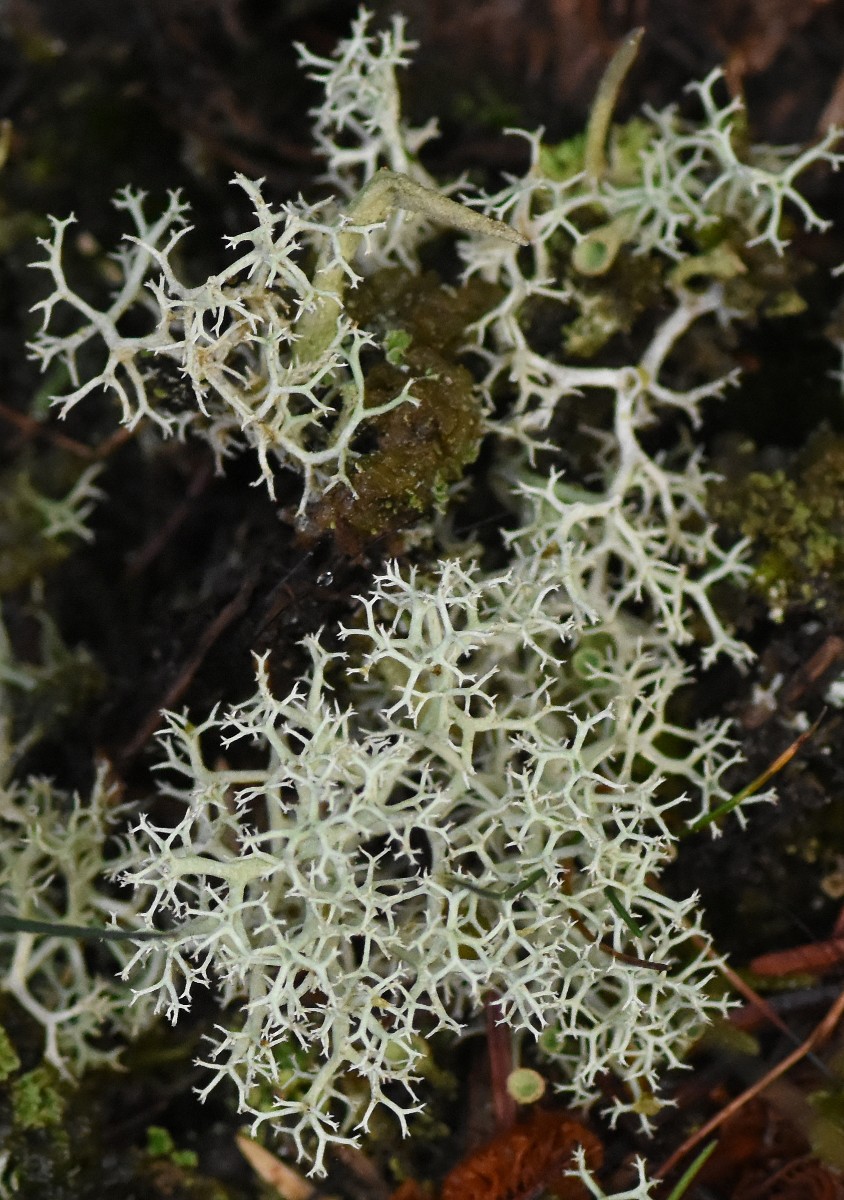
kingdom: Fungi
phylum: Ascomycota
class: Lecanoromycetes
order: Lecanorales
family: Cladoniaceae
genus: Cladonia
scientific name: Cladonia portentosa
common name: hede-rensdyrlav
